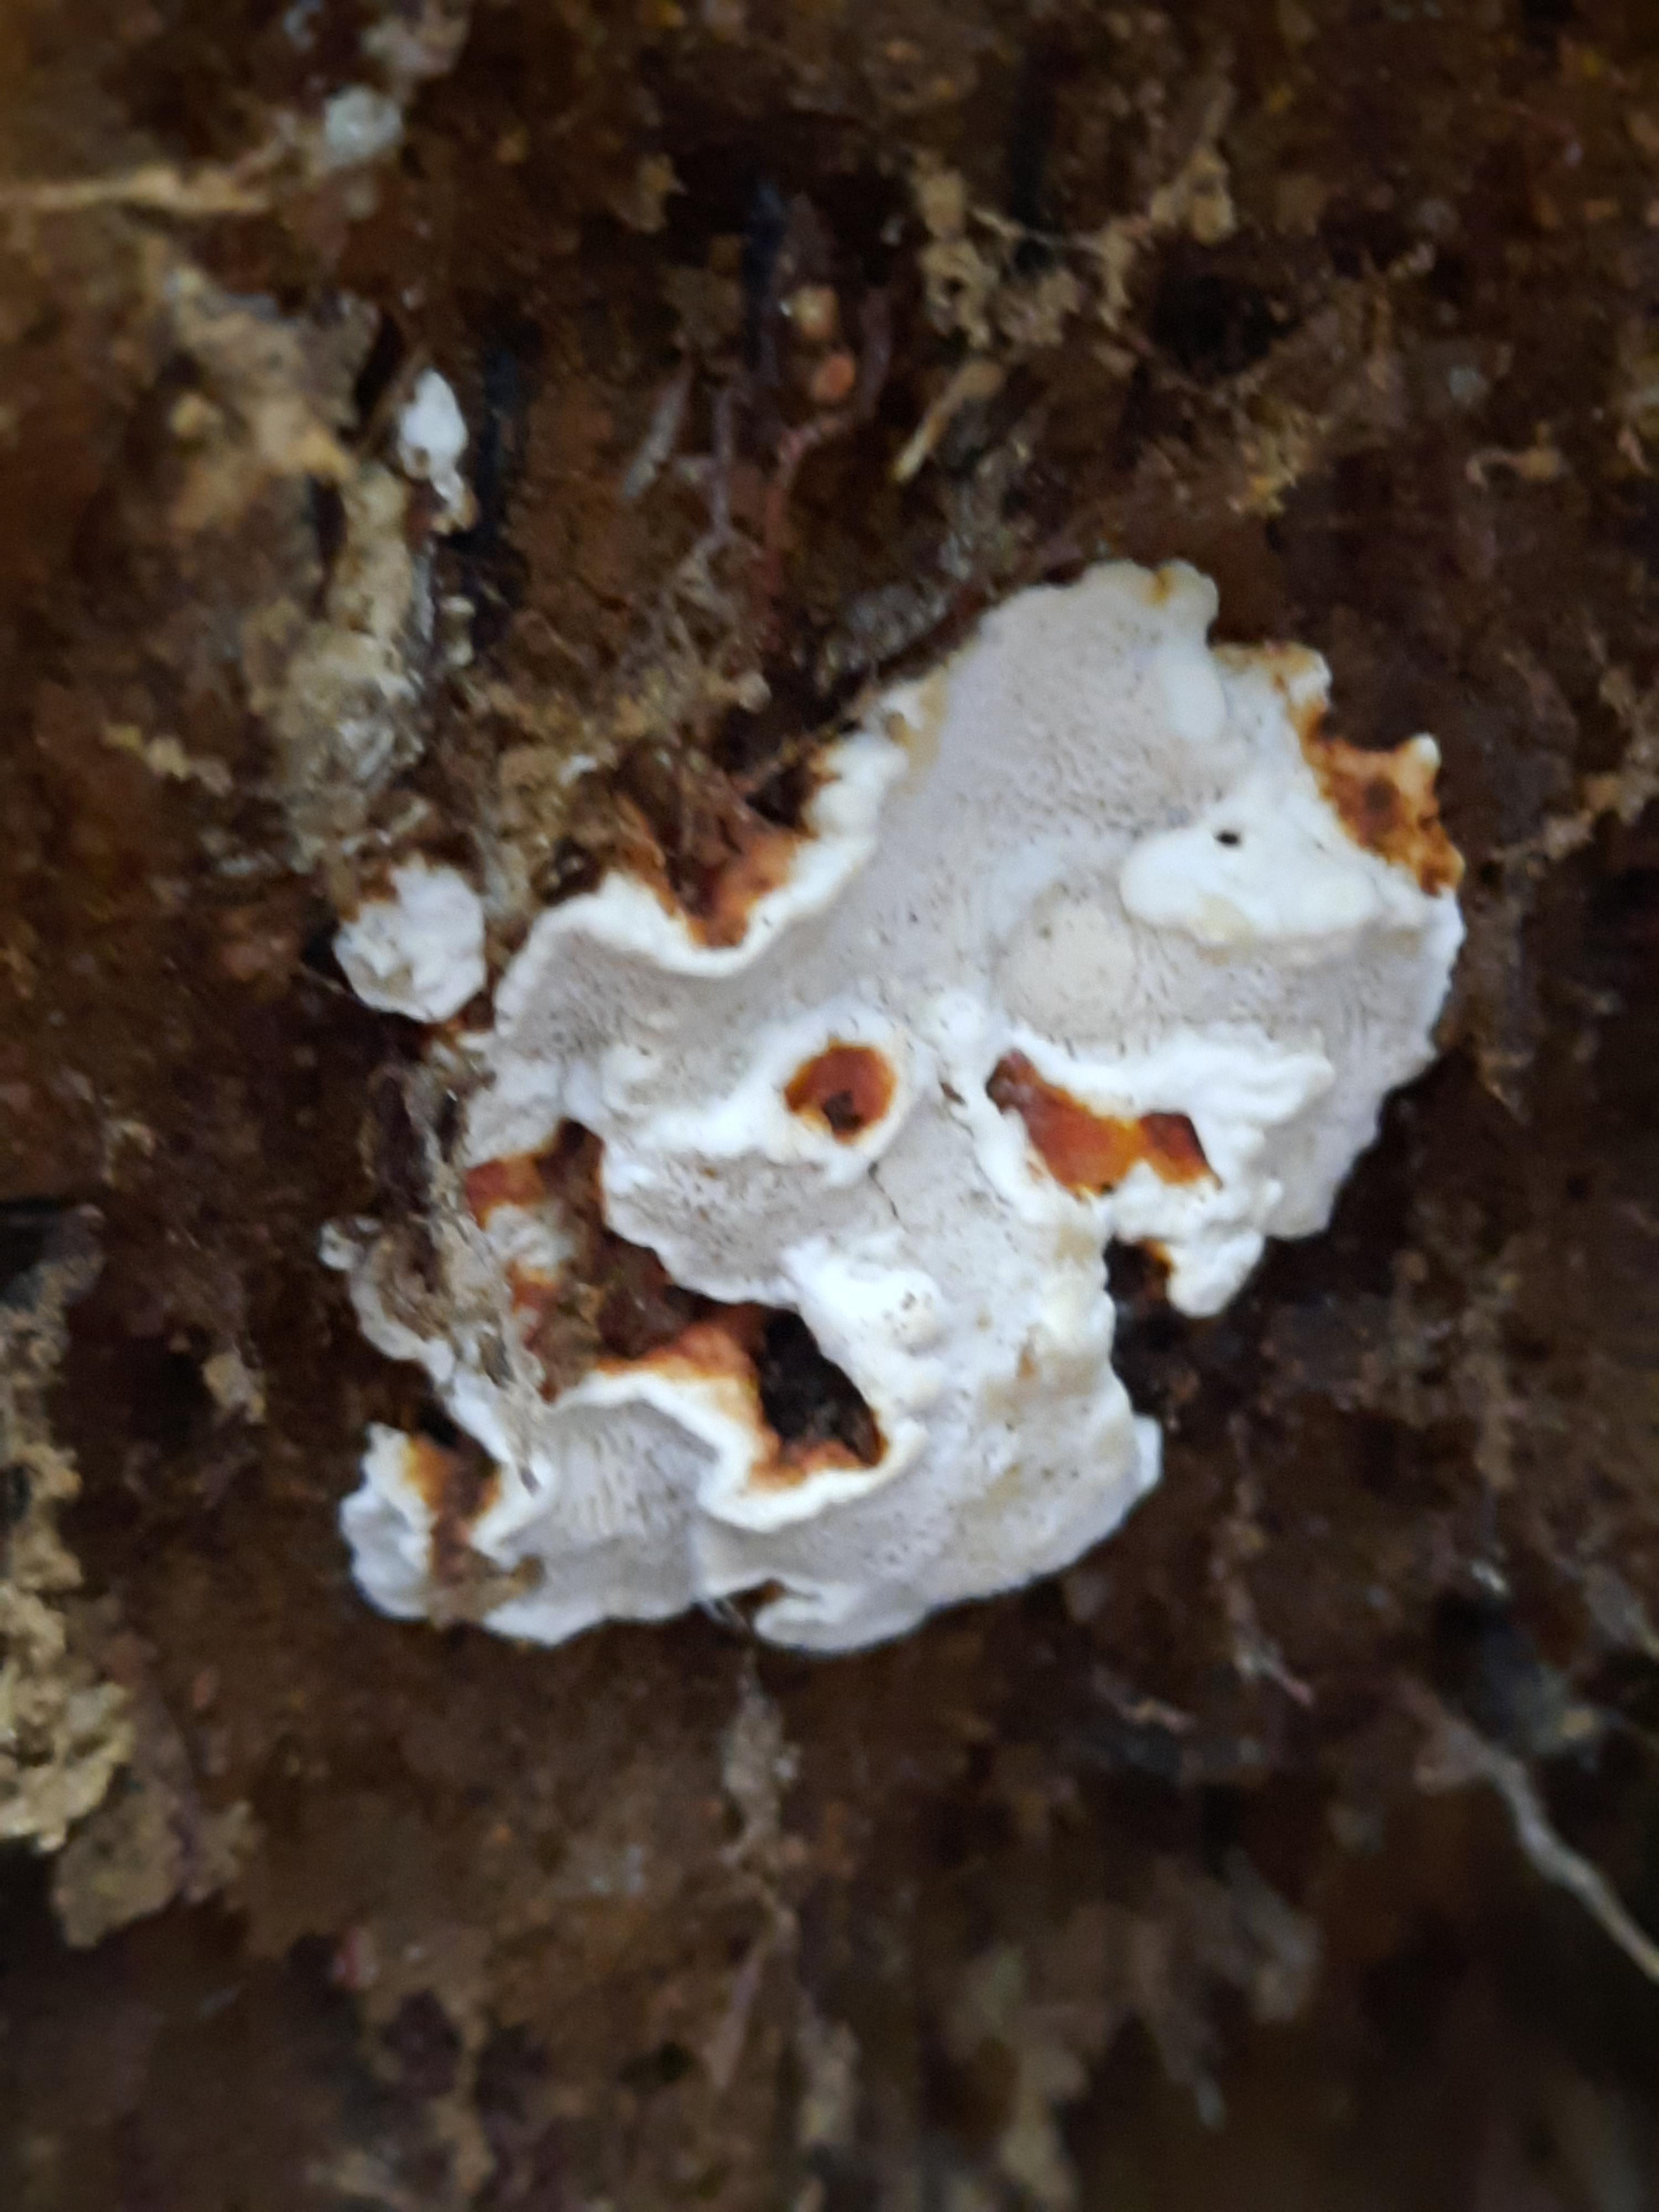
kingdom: Fungi
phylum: Basidiomycota
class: Agaricomycetes
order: Russulales
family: Bondarzewiaceae
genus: Heterobasidion
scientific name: Heterobasidion annosum
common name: almindelig rodfordærver
